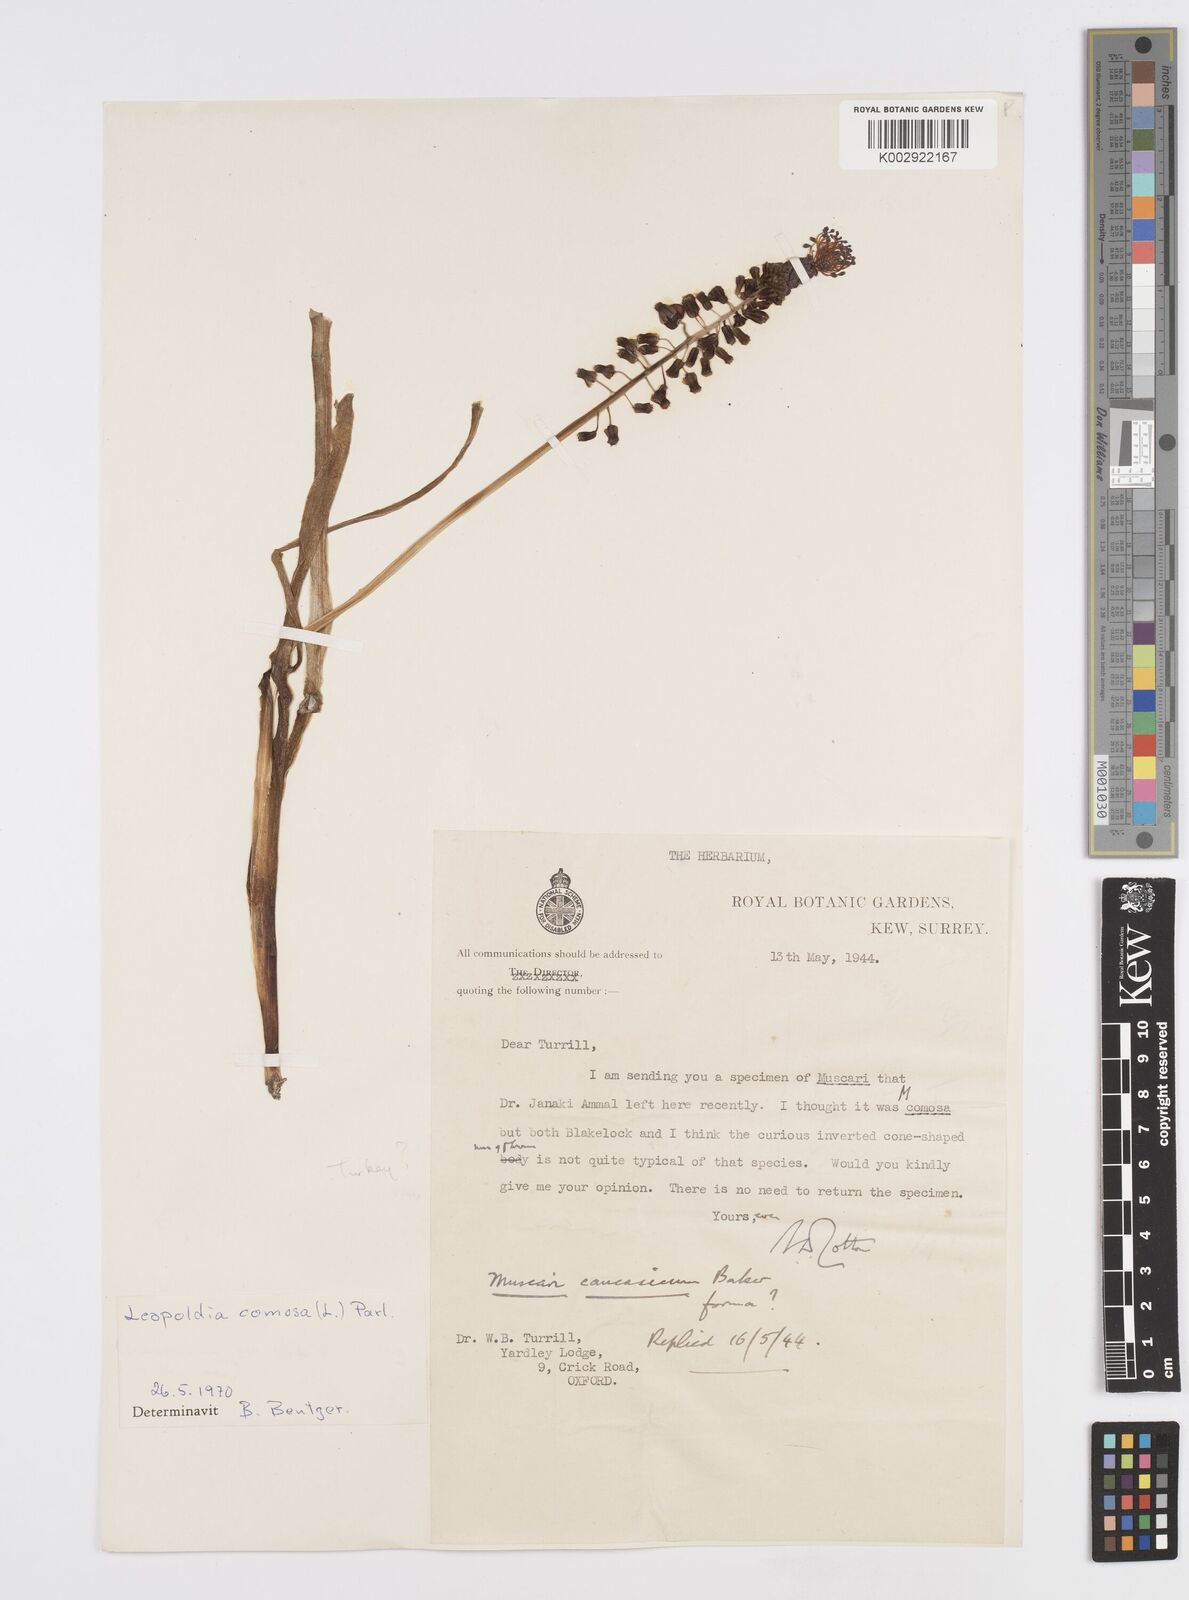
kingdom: Plantae
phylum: Tracheophyta
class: Liliopsida
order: Asparagales
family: Asparagaceae
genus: Muscari
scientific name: Muscari comosum
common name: Tassel hyacinth
